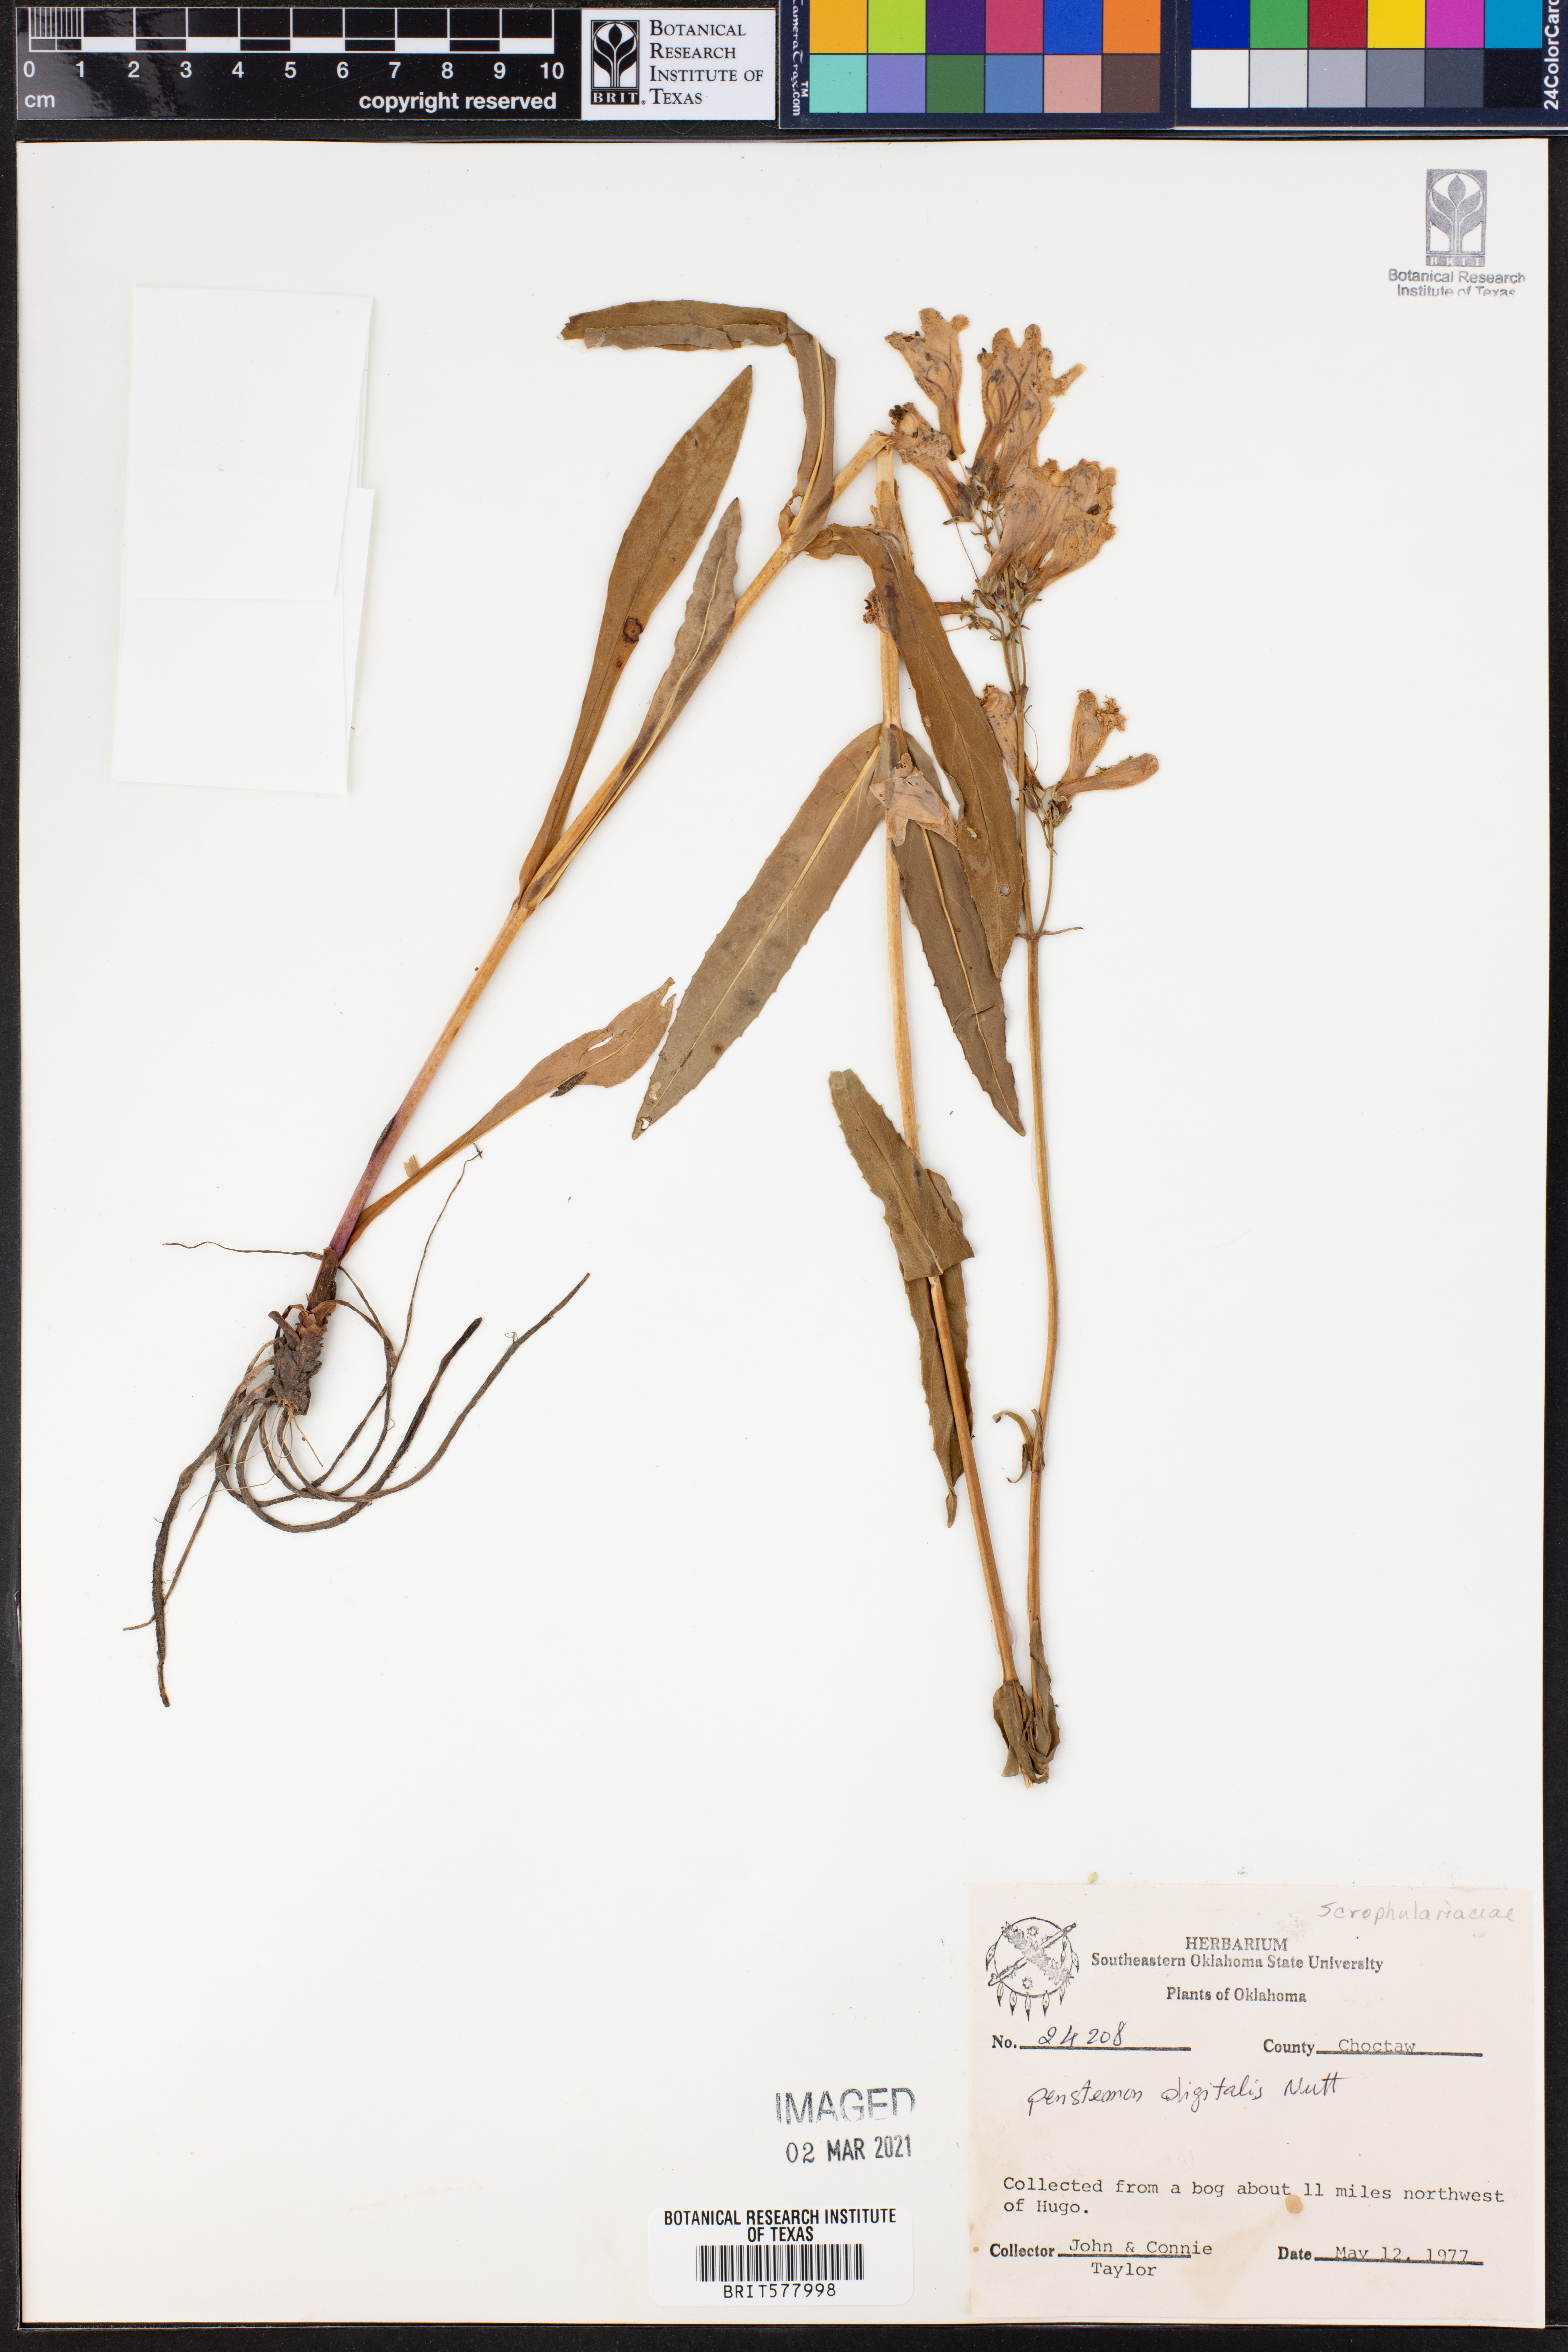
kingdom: Plantae
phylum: Tracheophyta
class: Magnoliopsida
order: Lamiales
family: Plantaginaceae
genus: Penstemon
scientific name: Penstemon digitalis
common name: Foxglove beardtongue
